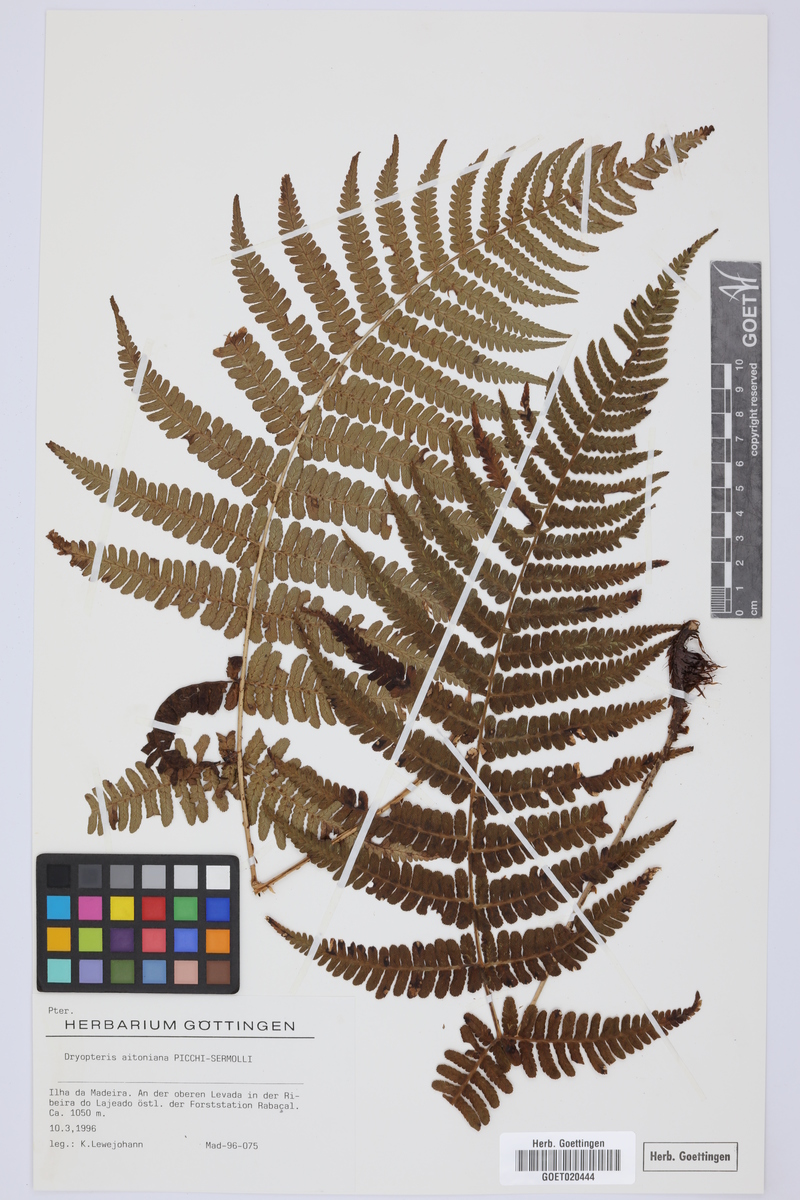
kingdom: Plantae
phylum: Tracheophyta
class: Polypodiopsida
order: Polypodiales
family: Dryopteridaceae
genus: Dryopteris
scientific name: Dryopteris aitoniana
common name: Aiton's buckler-fern
